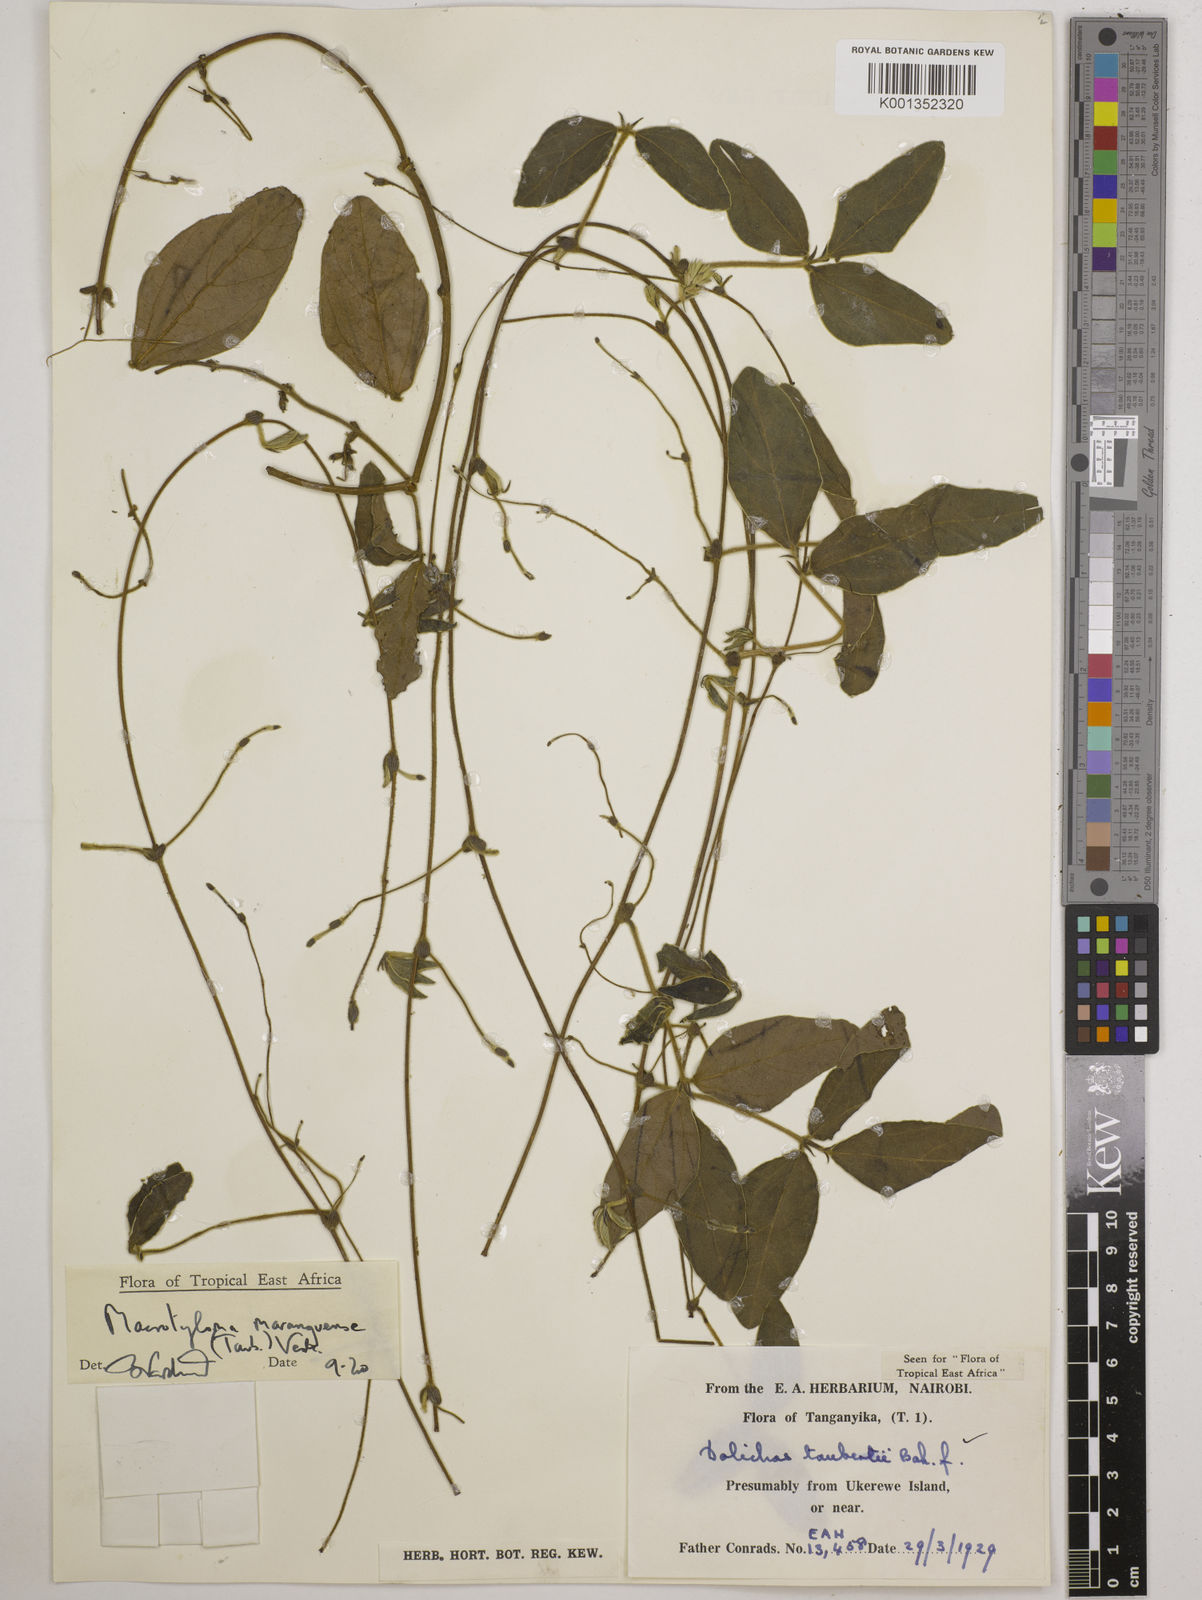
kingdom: Plantae
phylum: Tracheophyta
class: Magnoliopsida
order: Fabales
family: Fabaceae
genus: Macrotyloma
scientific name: Macrotyloma maranguense
